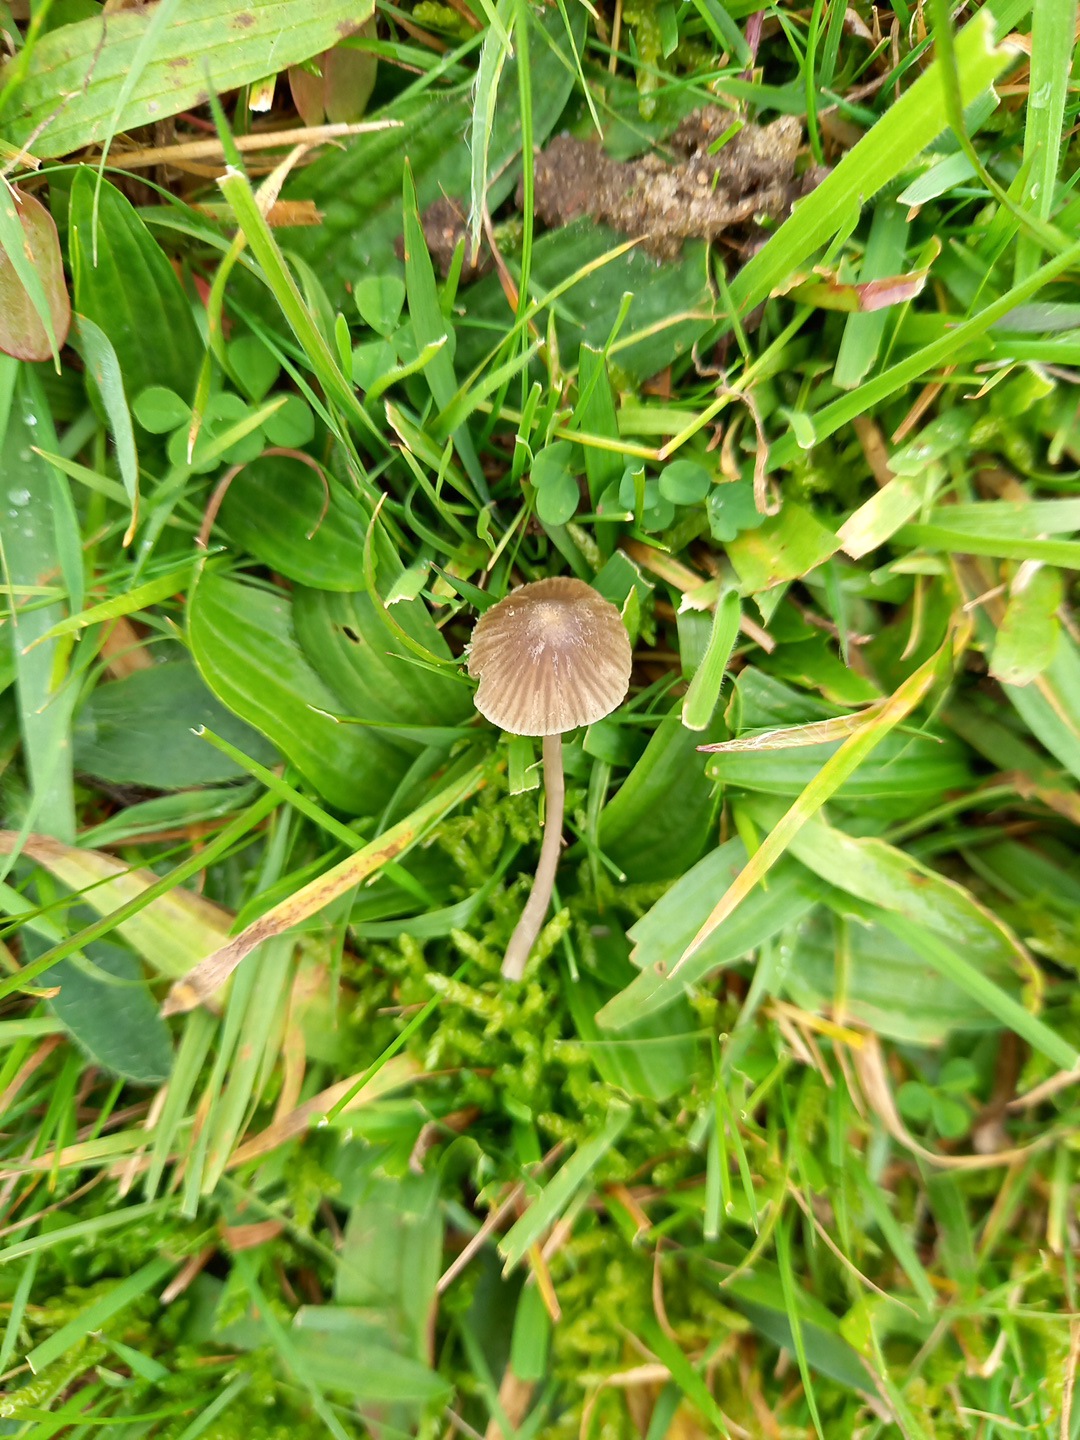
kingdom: Fungi
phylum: Basidiomycota
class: Agaricomycetes
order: Agaricales
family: Mycenaceae
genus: Mycena
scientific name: Mycena aetites
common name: plæne-huesvamp
